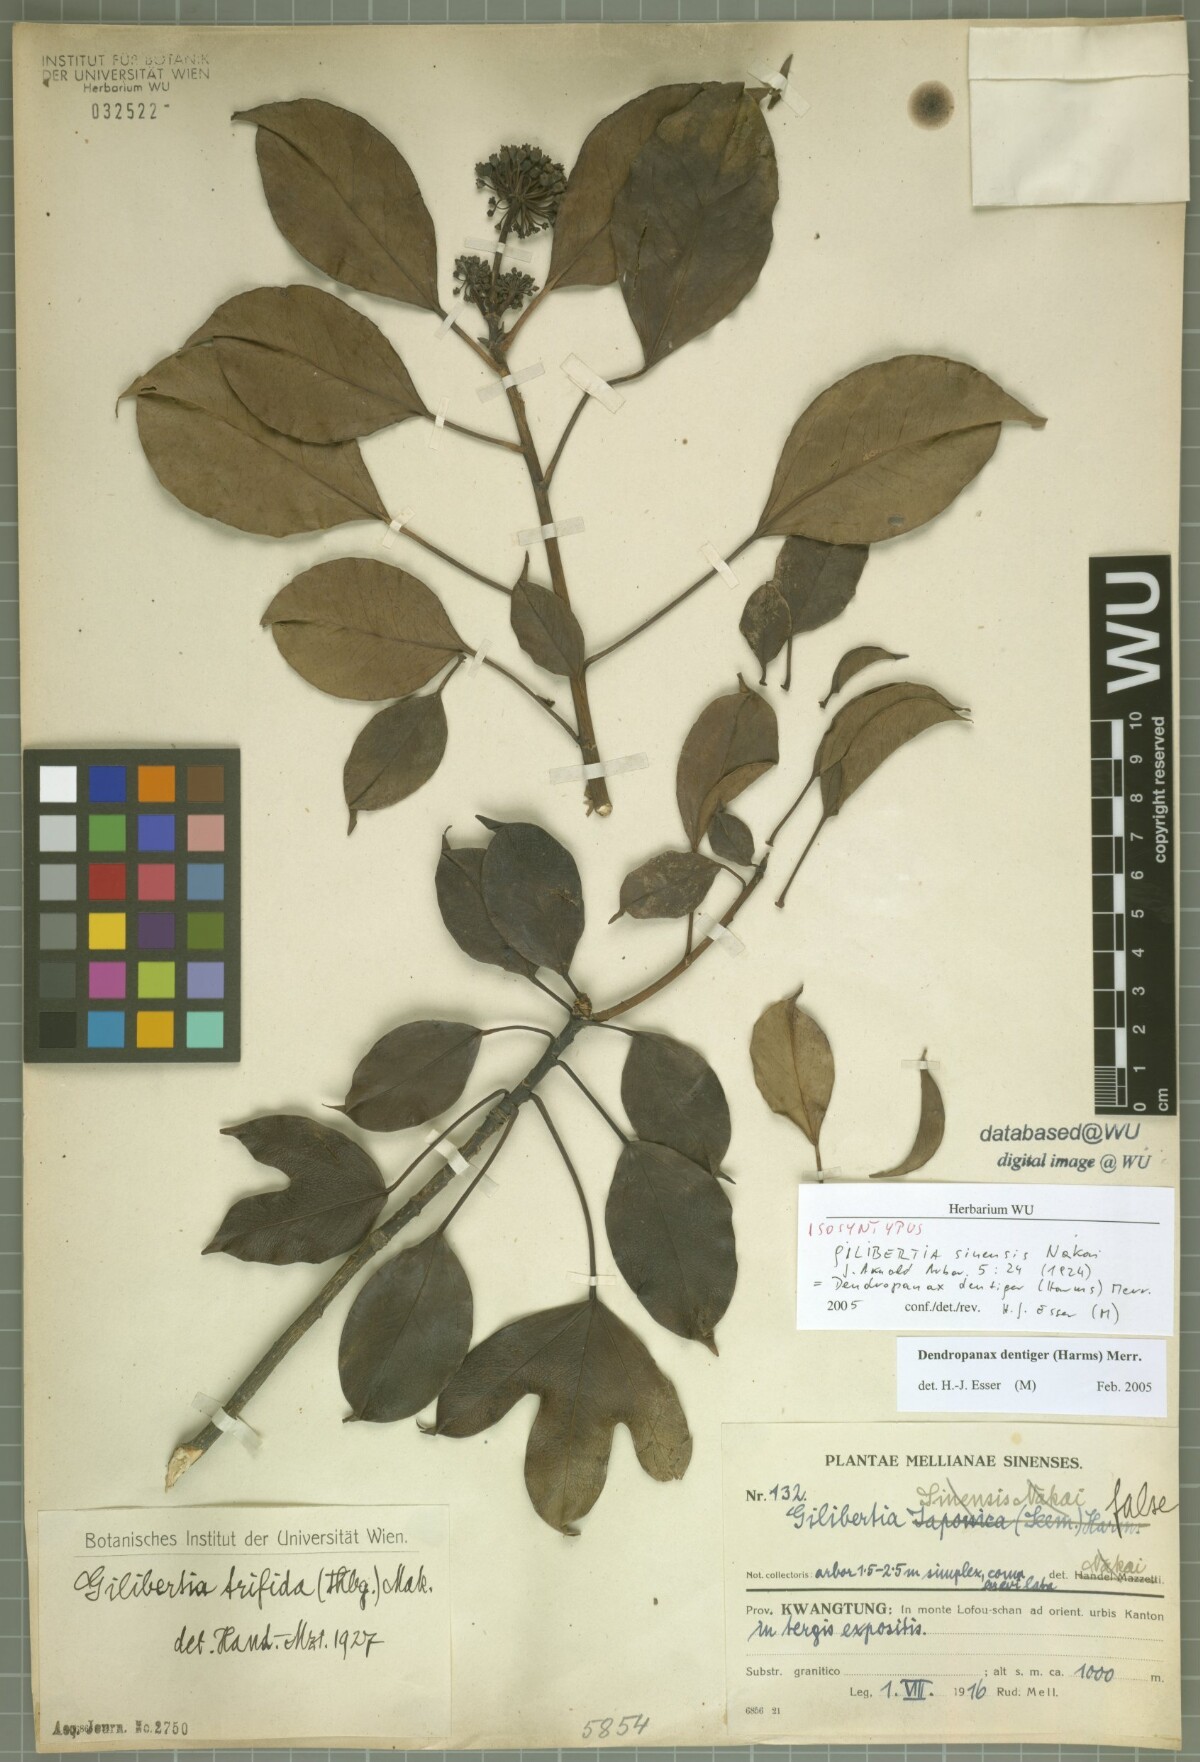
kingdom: Plantae
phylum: Tracheophyta
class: Magnoliopsida
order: Apiales
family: Araliaceae
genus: Dendropanax
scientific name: Dendropanax dentigerus
